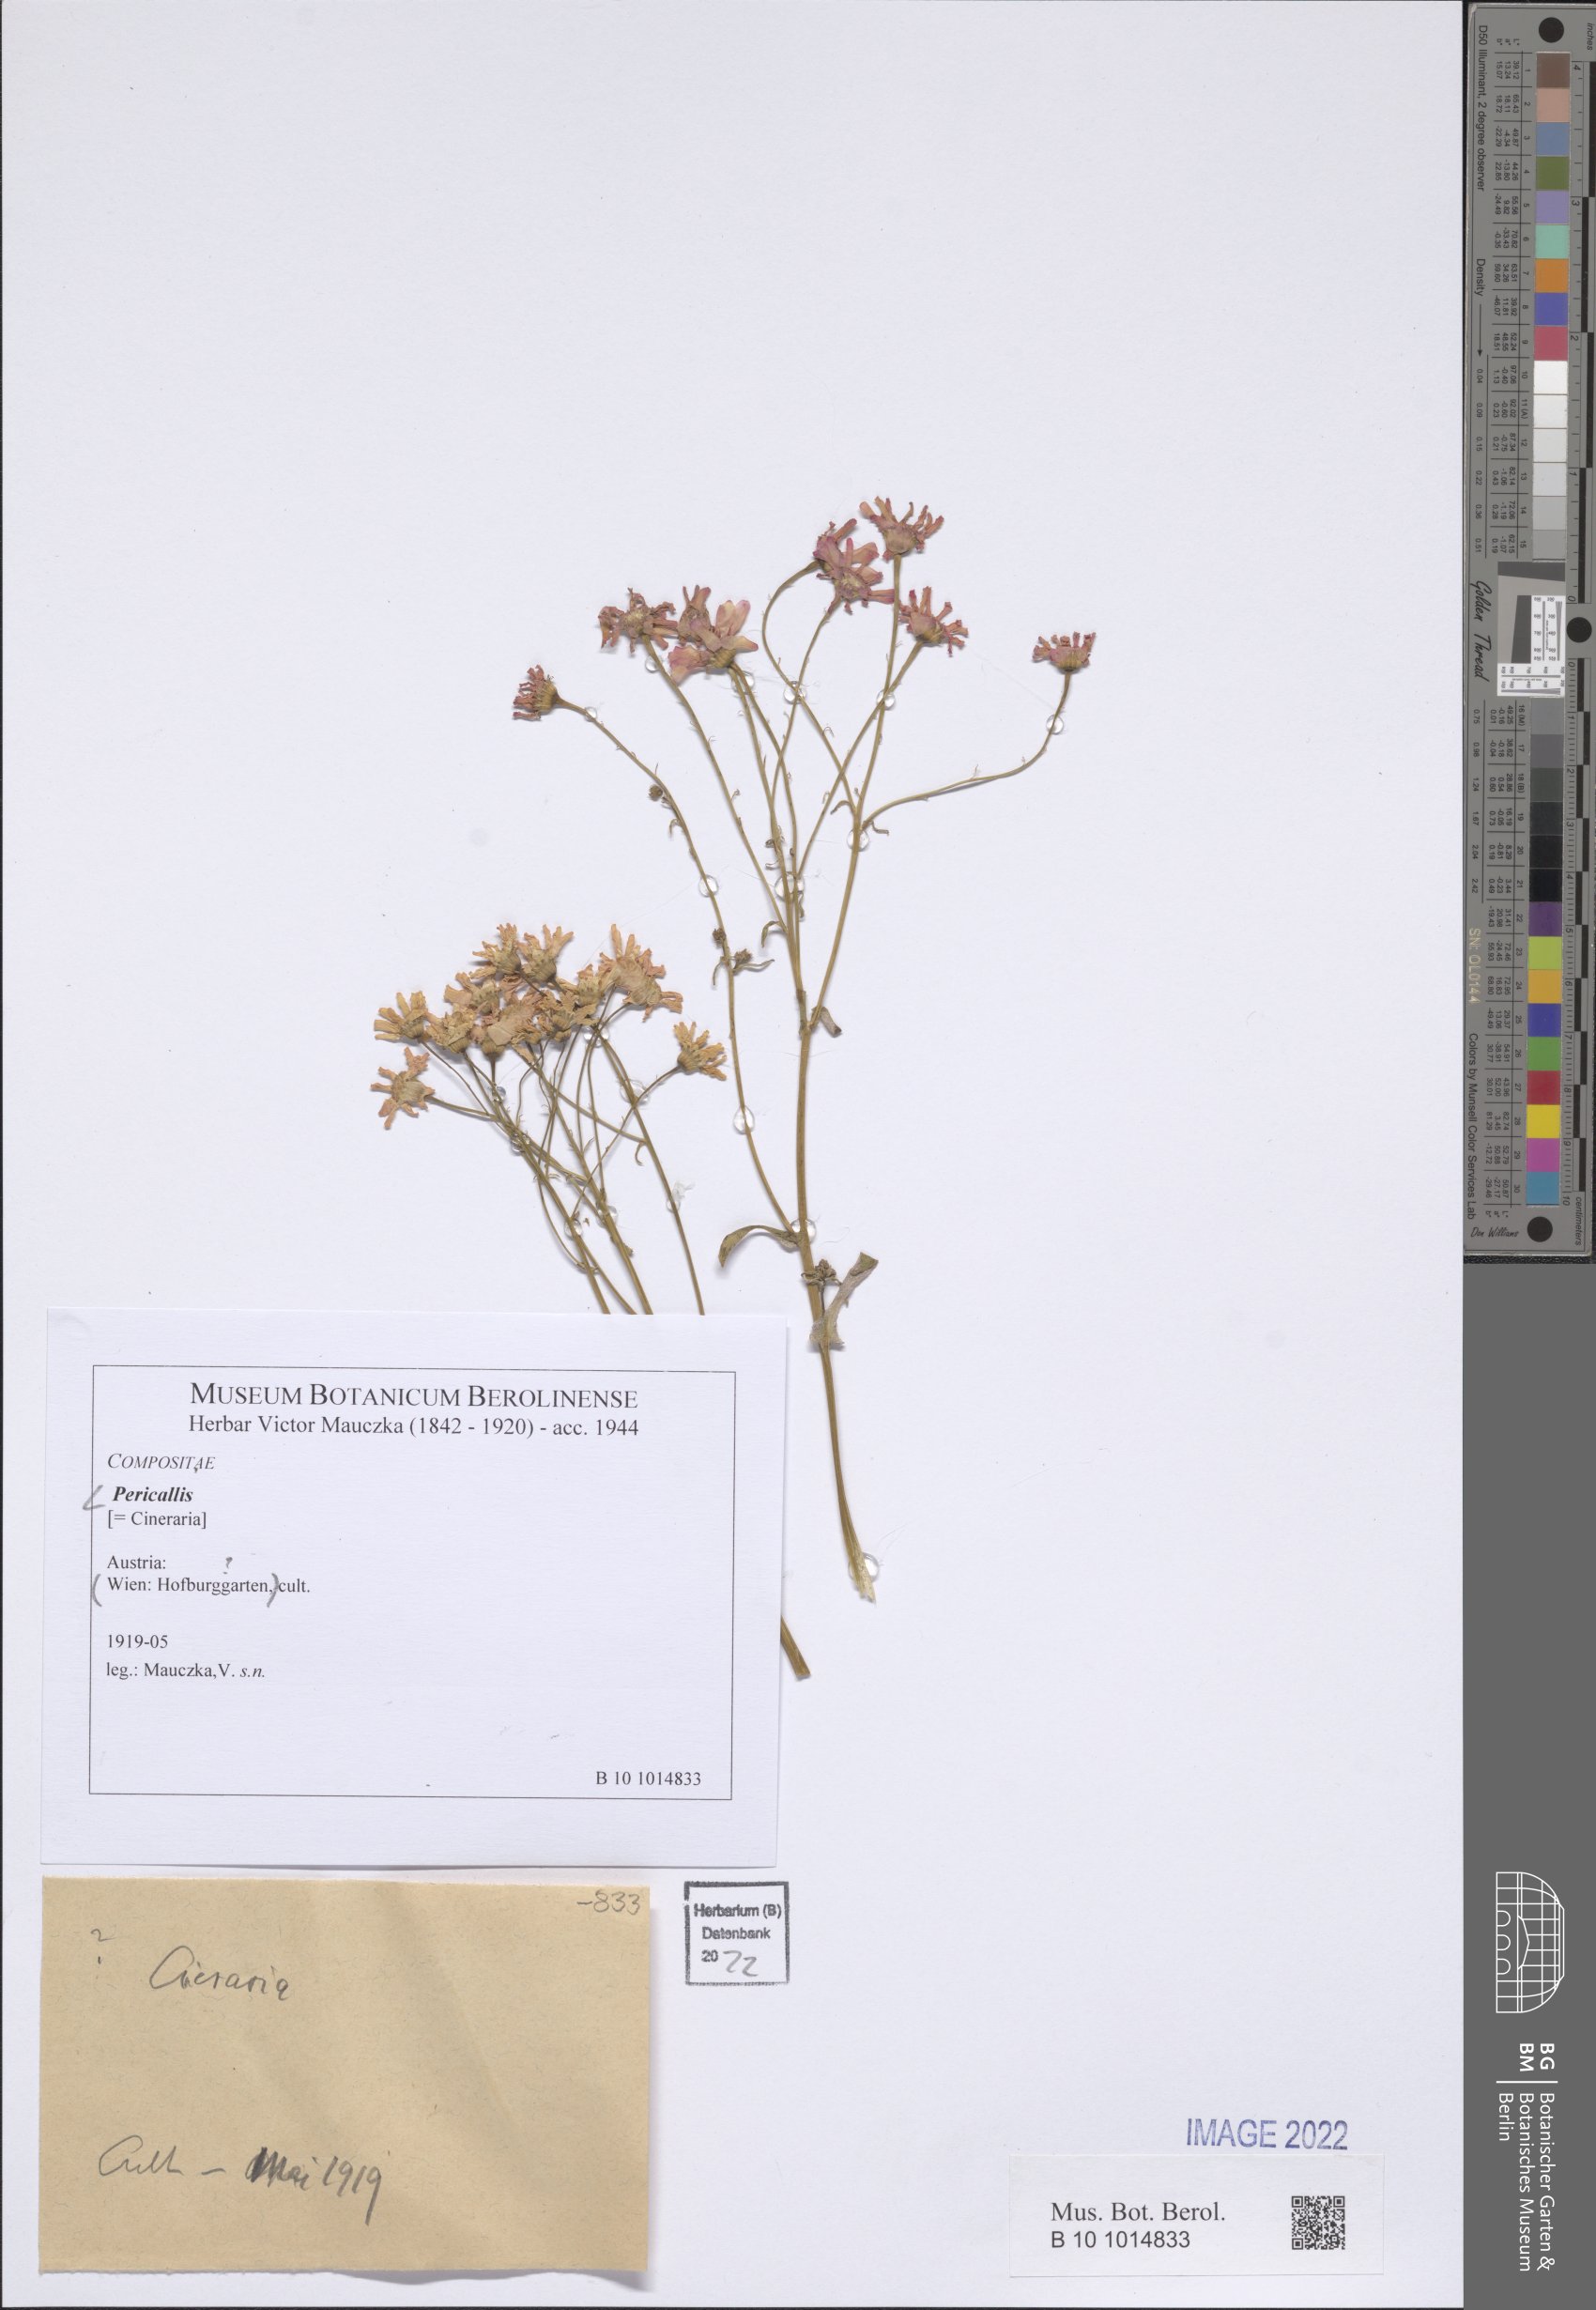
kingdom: Plantae
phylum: Tracheophyta
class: Magnoliopsida
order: Asterales
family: Asteraceae
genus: Pericallis
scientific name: Pericallis
